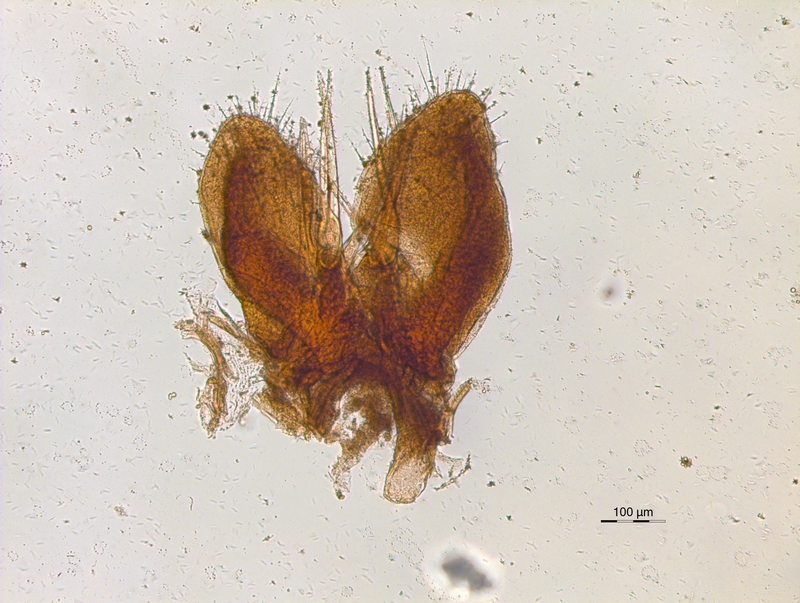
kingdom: Animalia
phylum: Arthropoda
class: Diplopoda
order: Chordeumatida
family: Chordeumatidae
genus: Melogona
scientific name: Melogona voigtii
